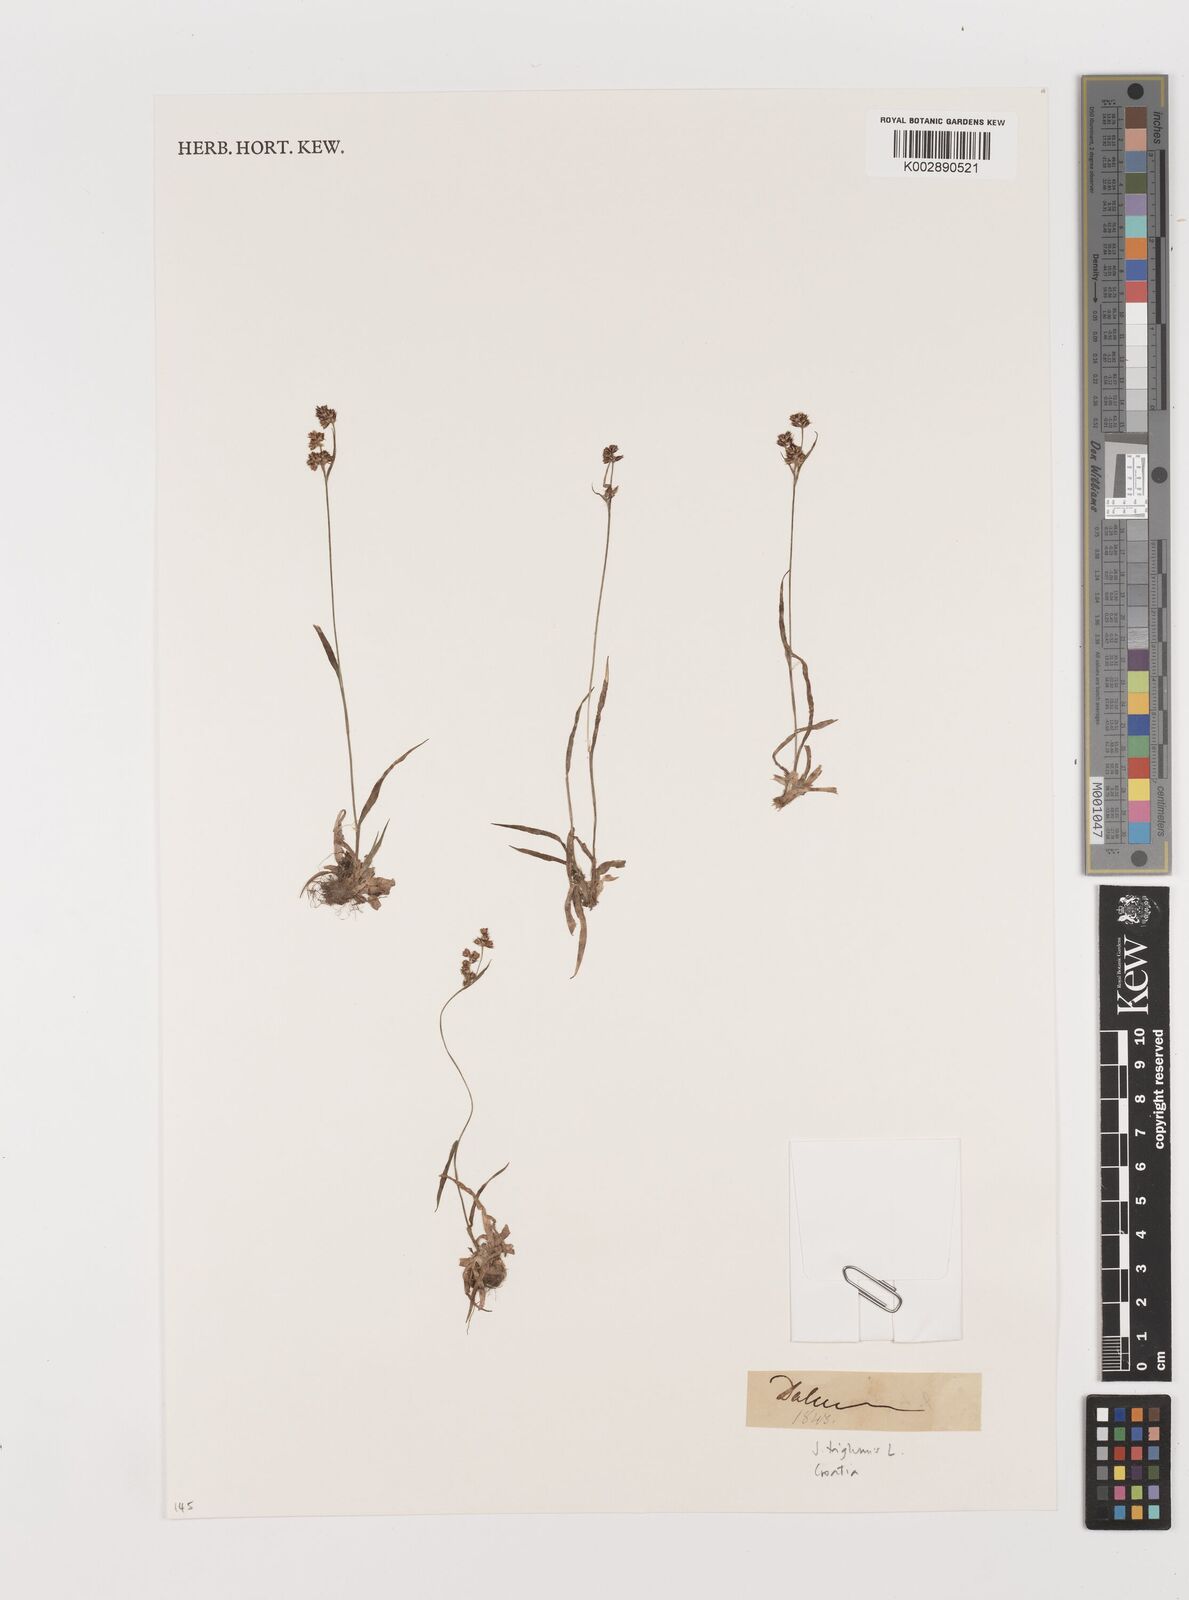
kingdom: Plantae
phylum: Tracheophyta
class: Liliopsida
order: Poales
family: Juncaceae
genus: Juncus
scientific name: Juncus triglumis
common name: Three-flowered rush
